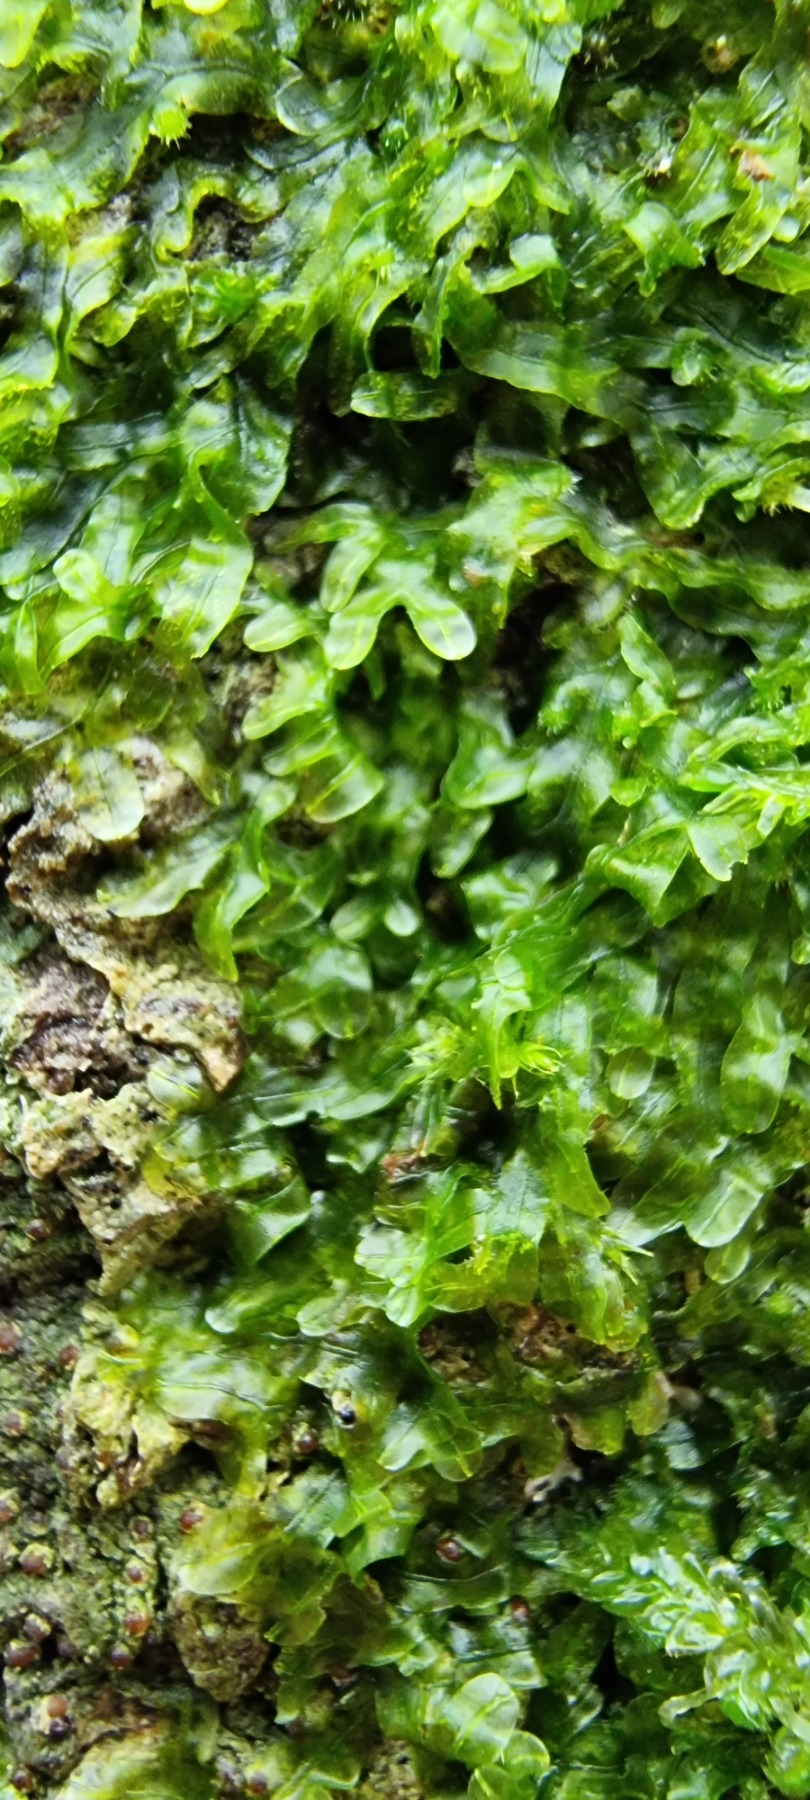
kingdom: Plantae
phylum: Marchantiophyta
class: Jungermanniopsida
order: Metzgeriales
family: Metzgeriaceae
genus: Metzgeria
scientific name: Metzgeria furcata
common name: Almindelig gaffelløv
